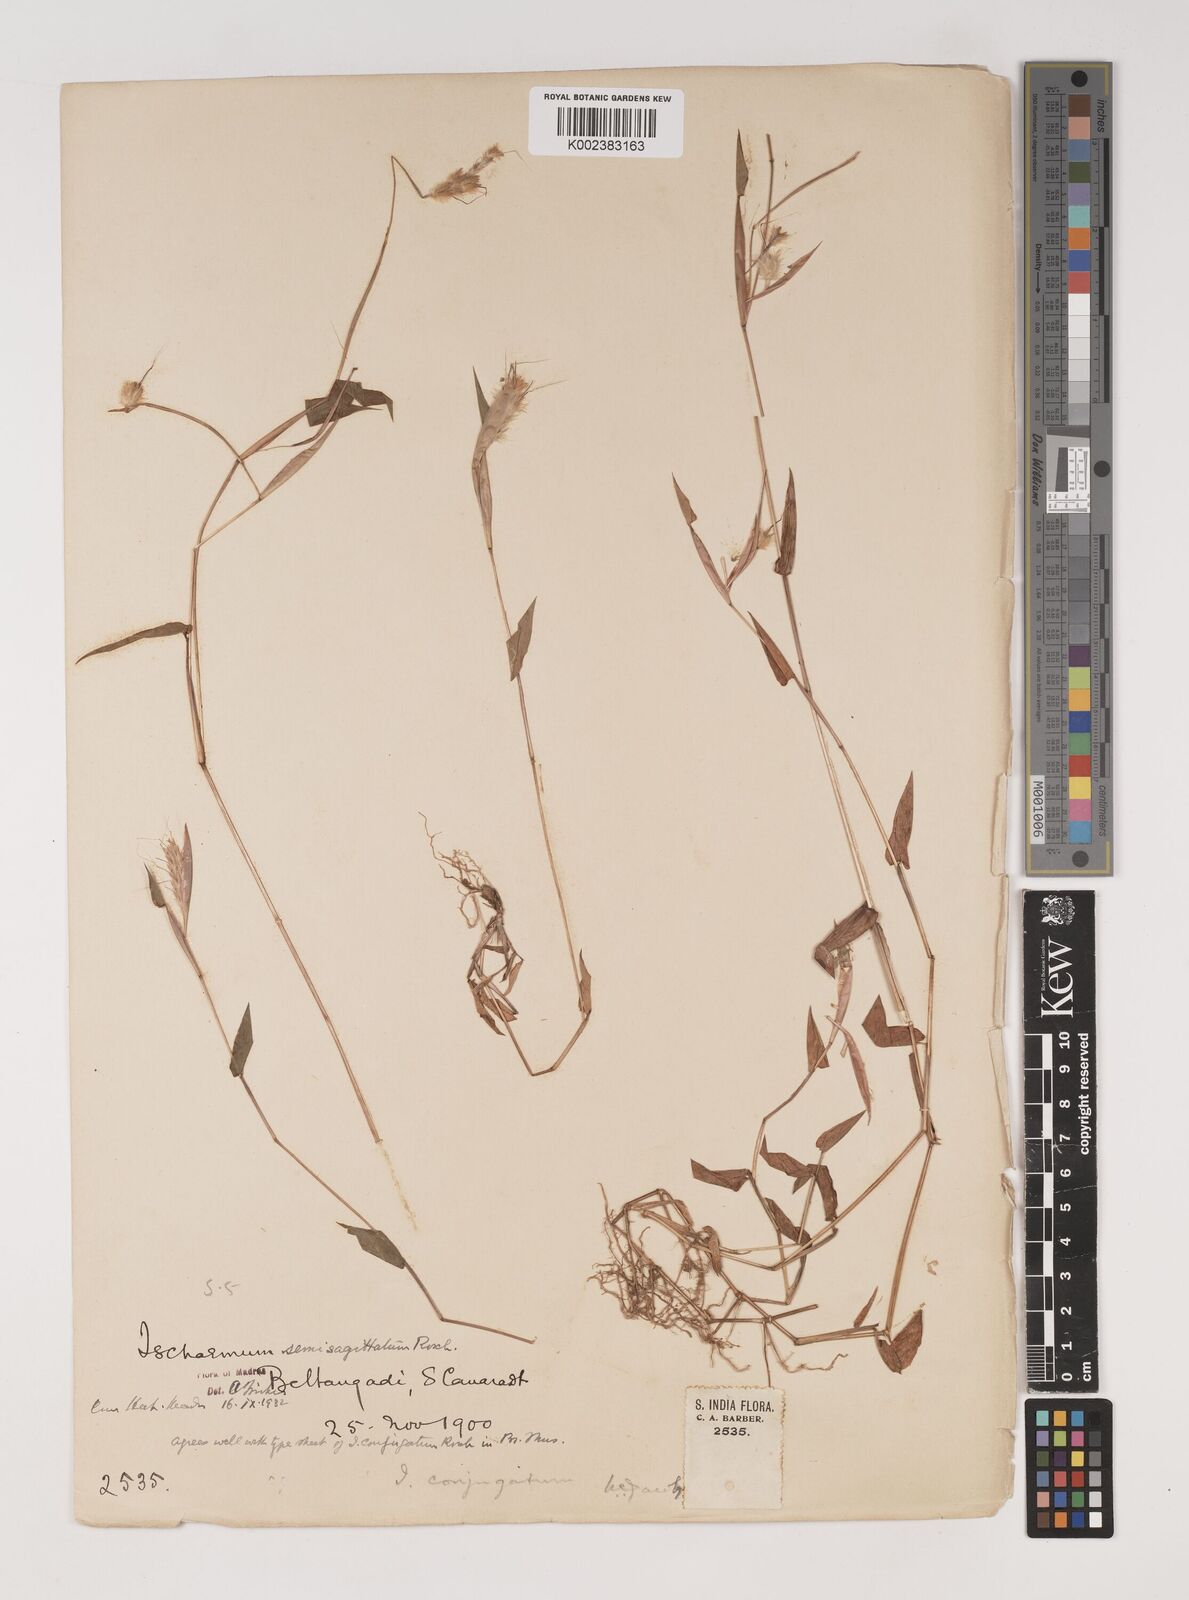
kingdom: Plantae
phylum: Tracheophyta
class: Liliopsida
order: Poales
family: Poaceae
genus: Ischaemum
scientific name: Ischaemum semisagittatum
